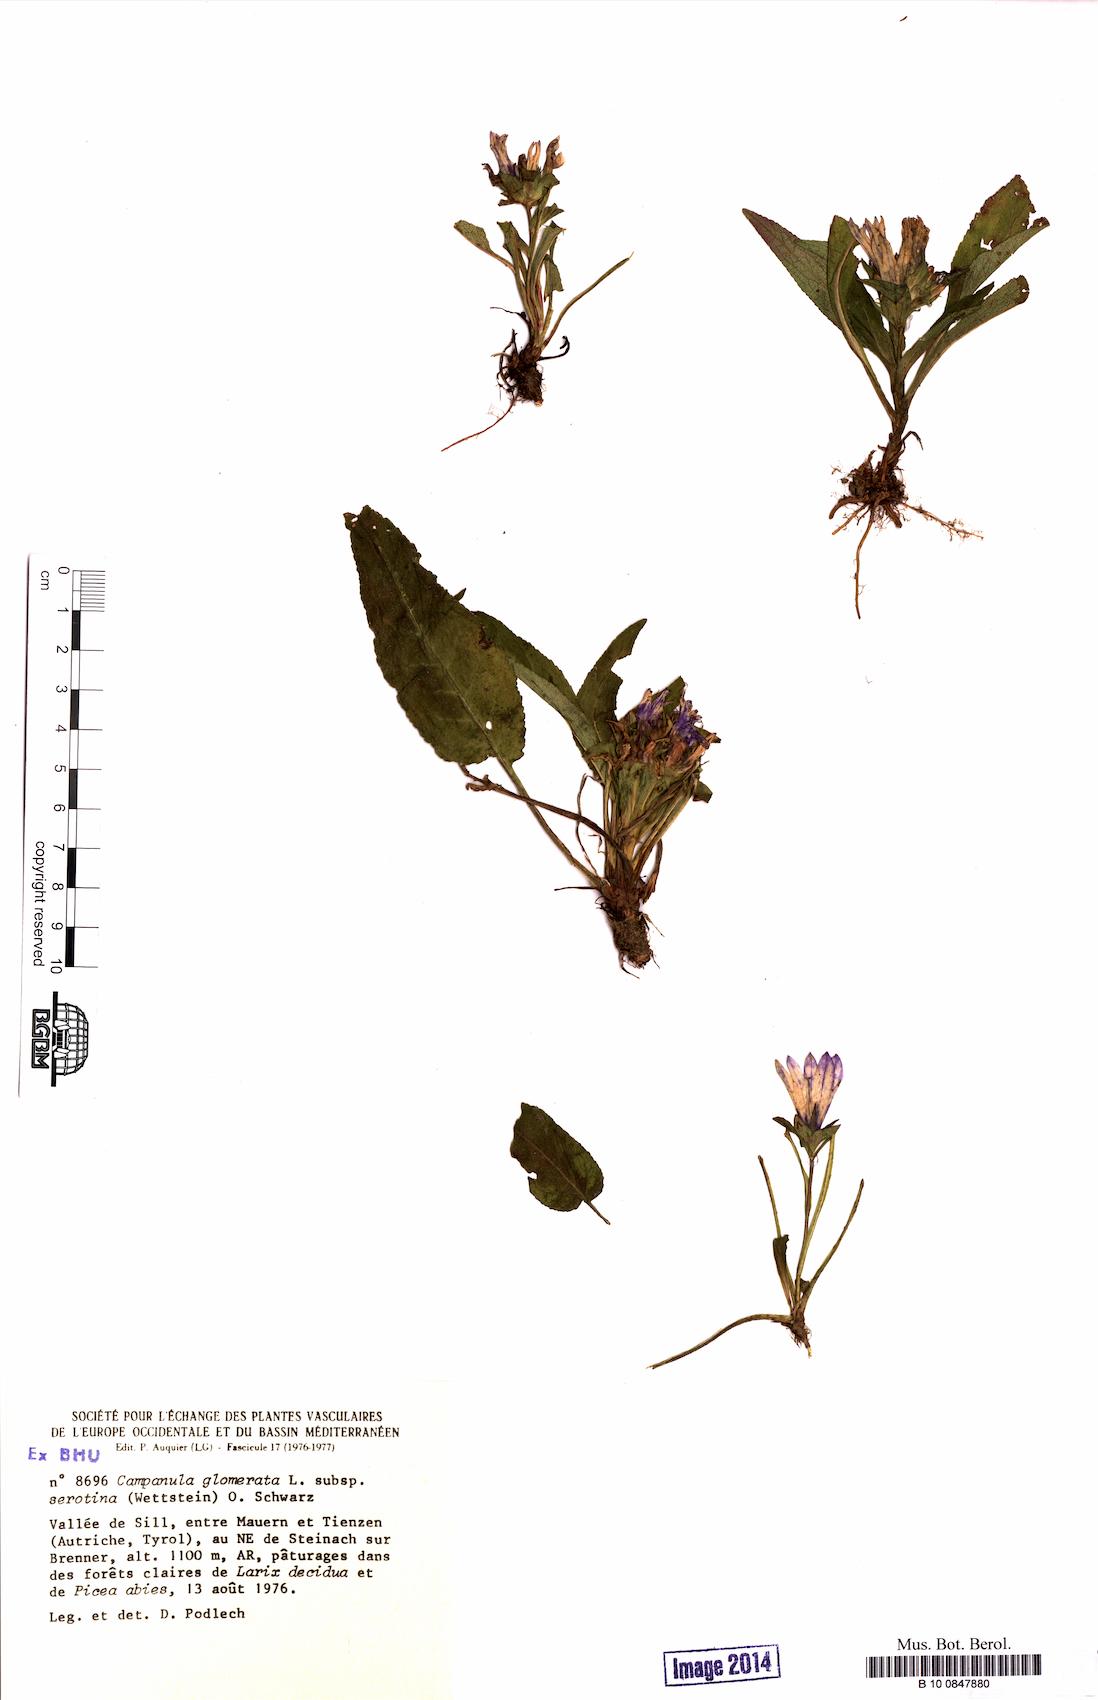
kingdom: Plantae
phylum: Tracheophyta
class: Magnoliopsida
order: Asterales
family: Campanulaceae
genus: Campanula
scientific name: Campanula glomerata
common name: Clustered bellflower
